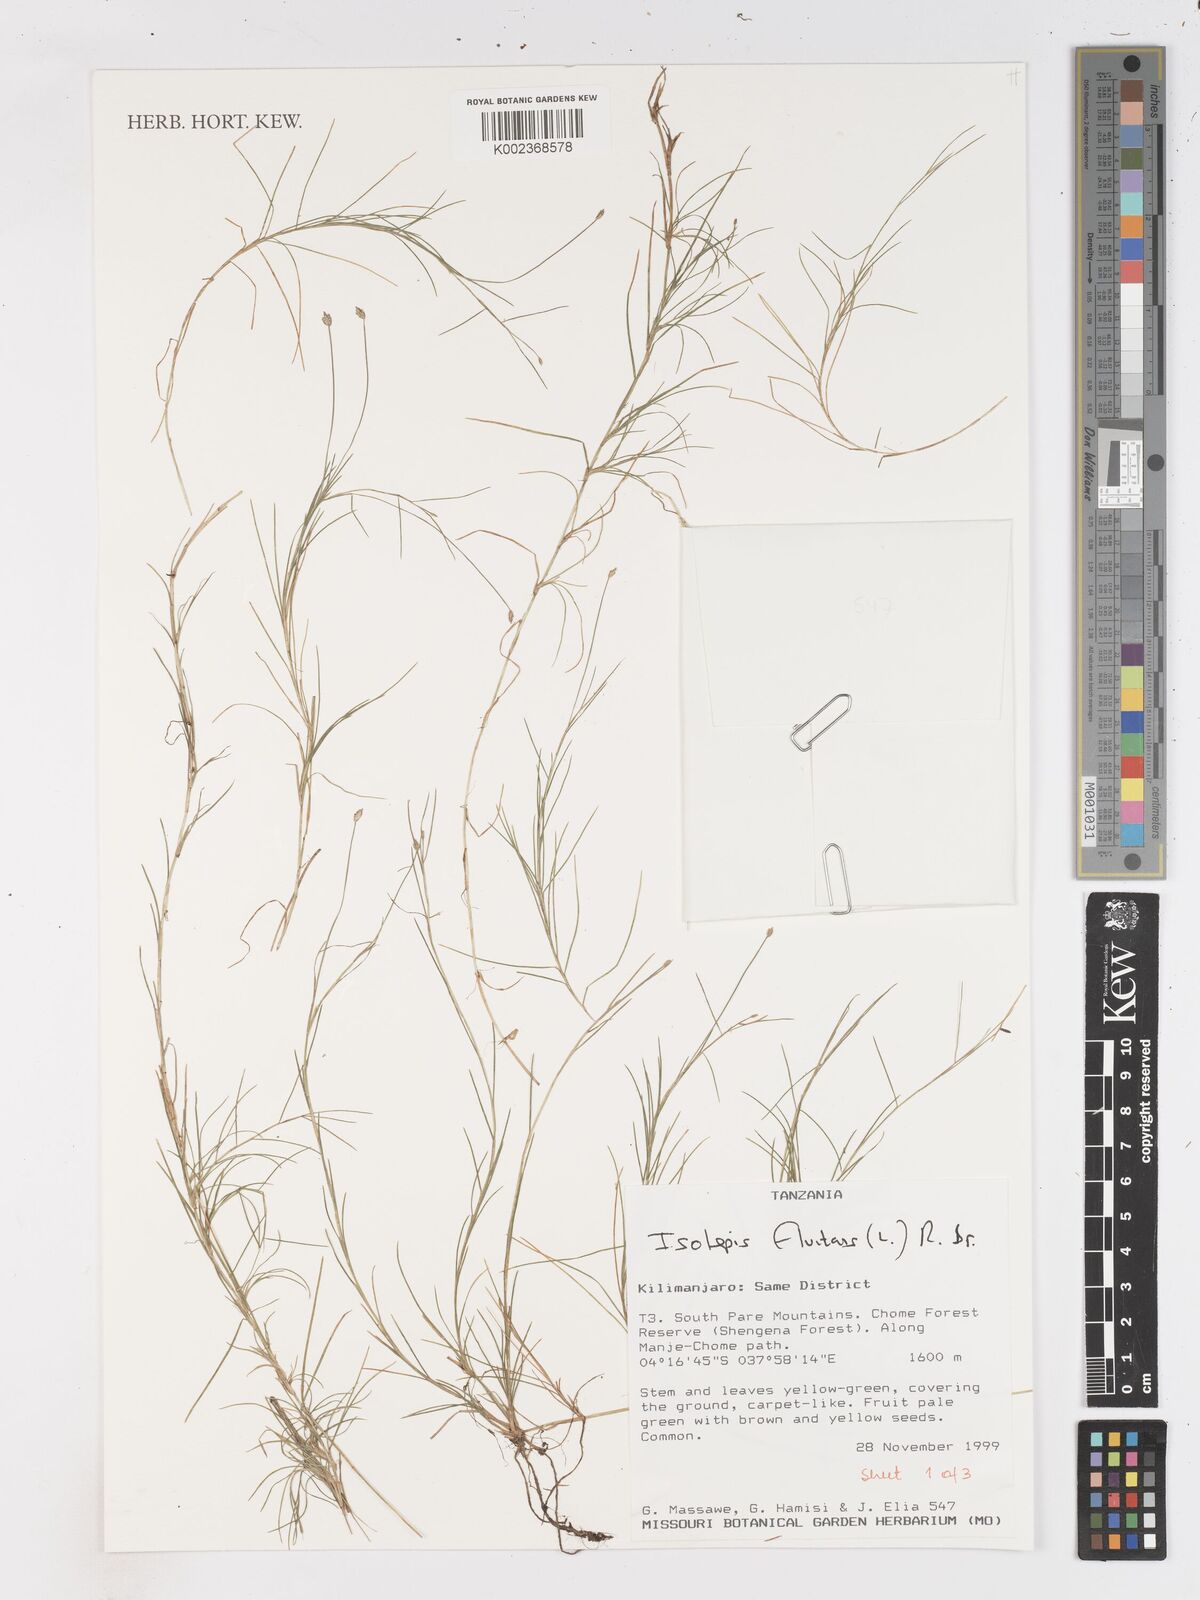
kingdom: Plantae
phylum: Tracheophyta
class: Liliopsida
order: Poales
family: Cyperaceae
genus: Isolepis
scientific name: Isolepis fluitans
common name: Floating club-rush
